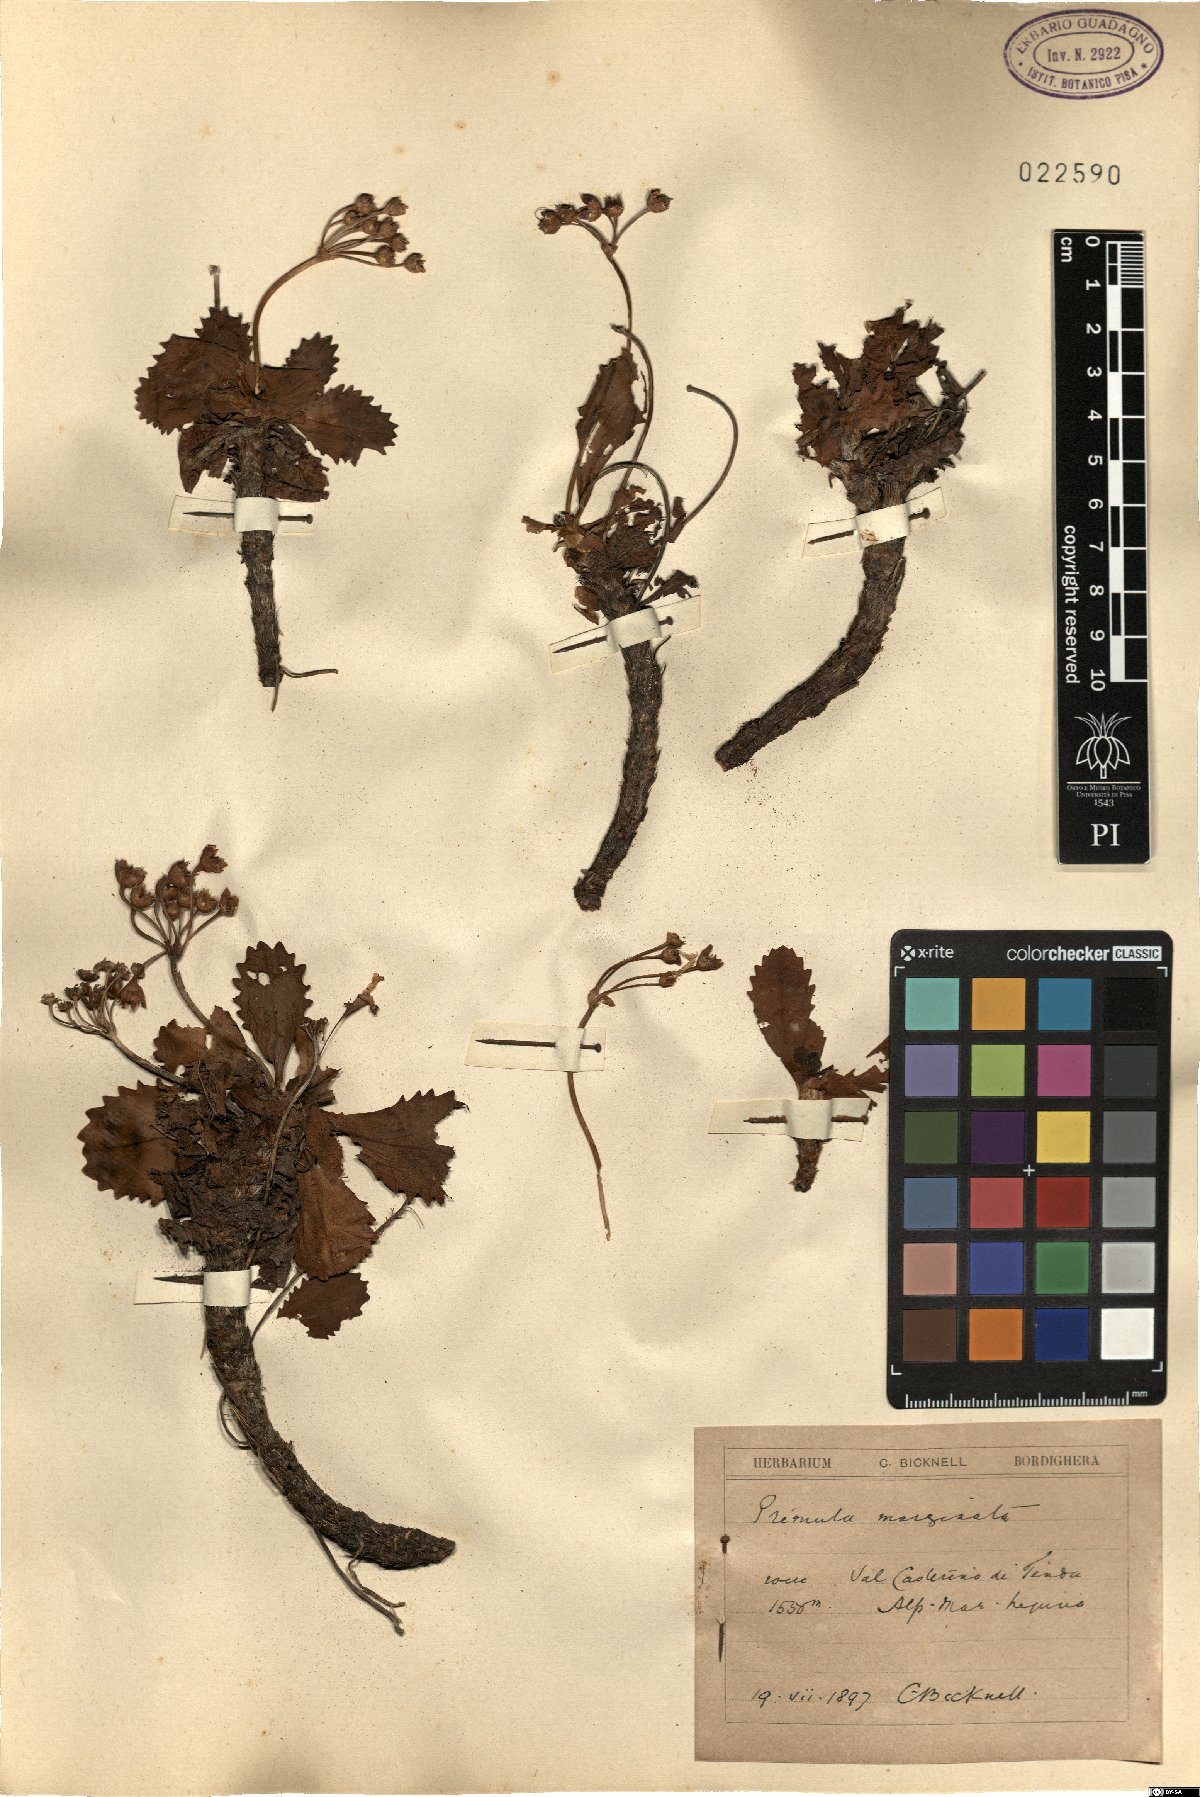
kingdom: Plantae
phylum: Tracheophyta
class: Magnoliopsida
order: Ericales
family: Primulaceae
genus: Primula
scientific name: Primula marginata
